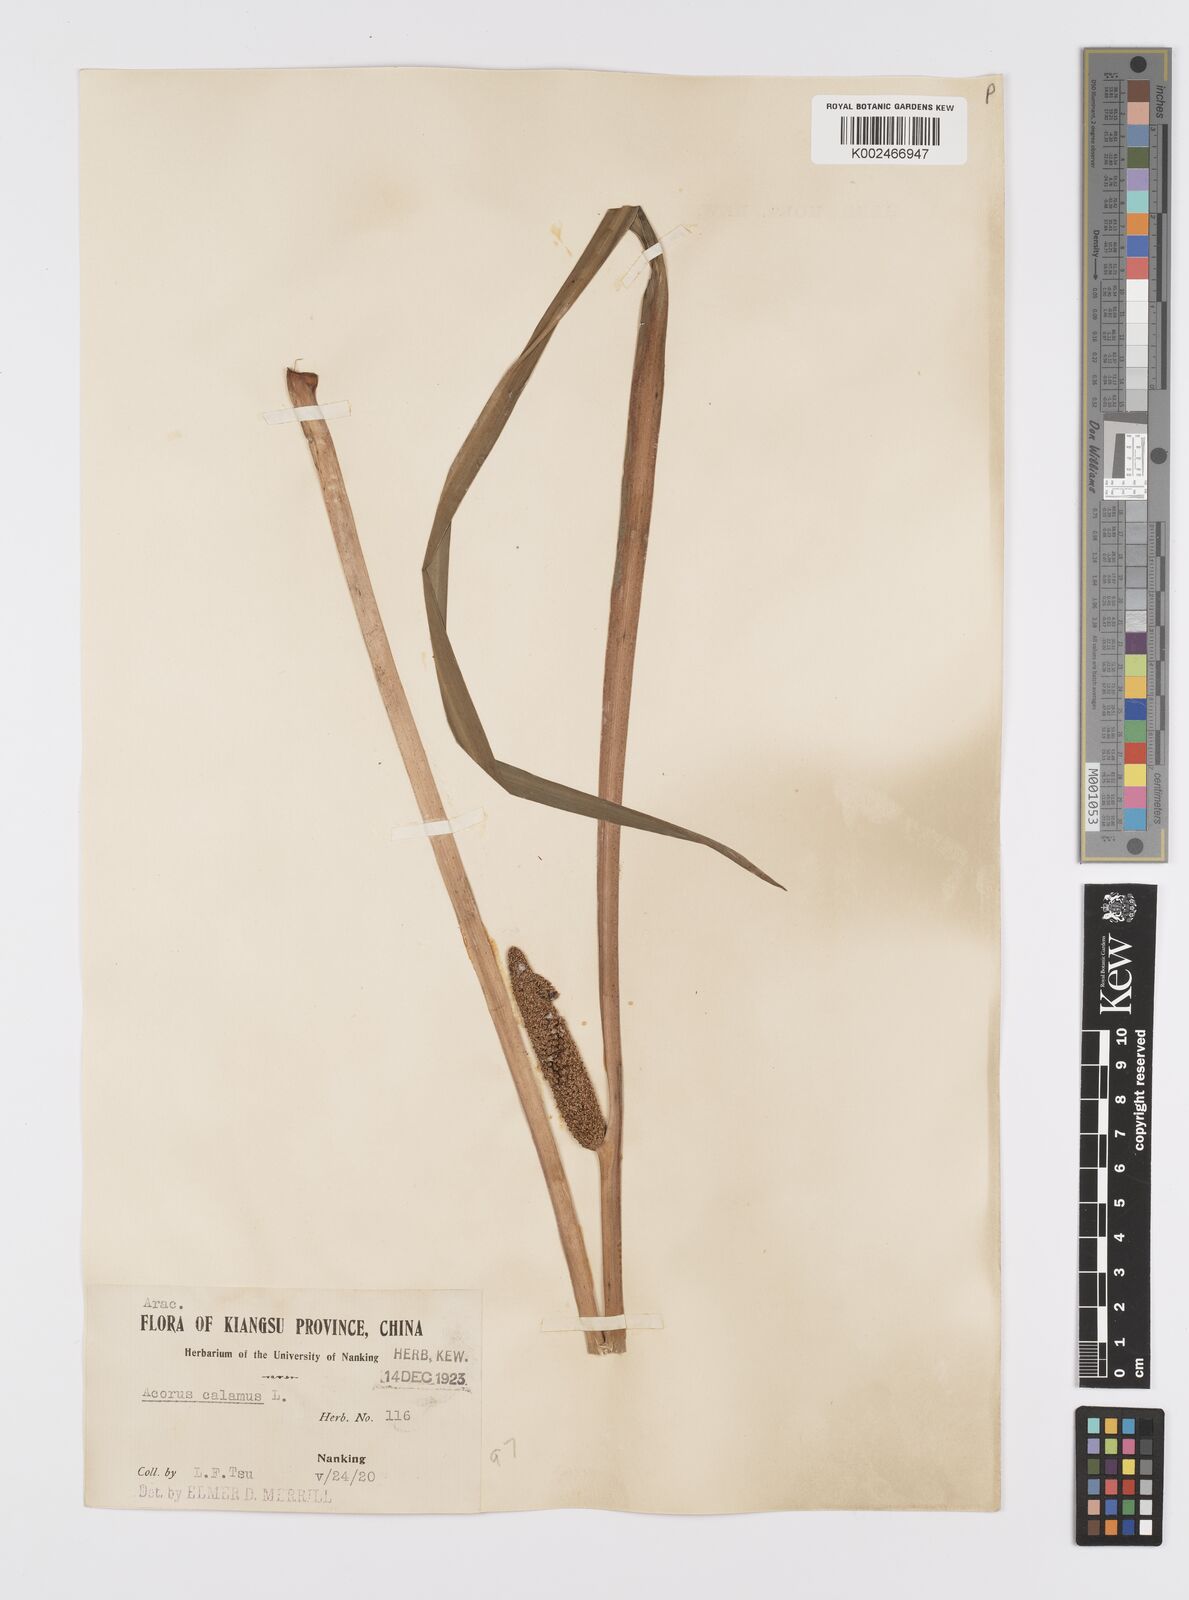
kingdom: Plantae
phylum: Tracheophyta
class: Liliopsida
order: Acorales
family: Acoraceae
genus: Acorus
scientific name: Acorus calamus
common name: Sweet-flag
